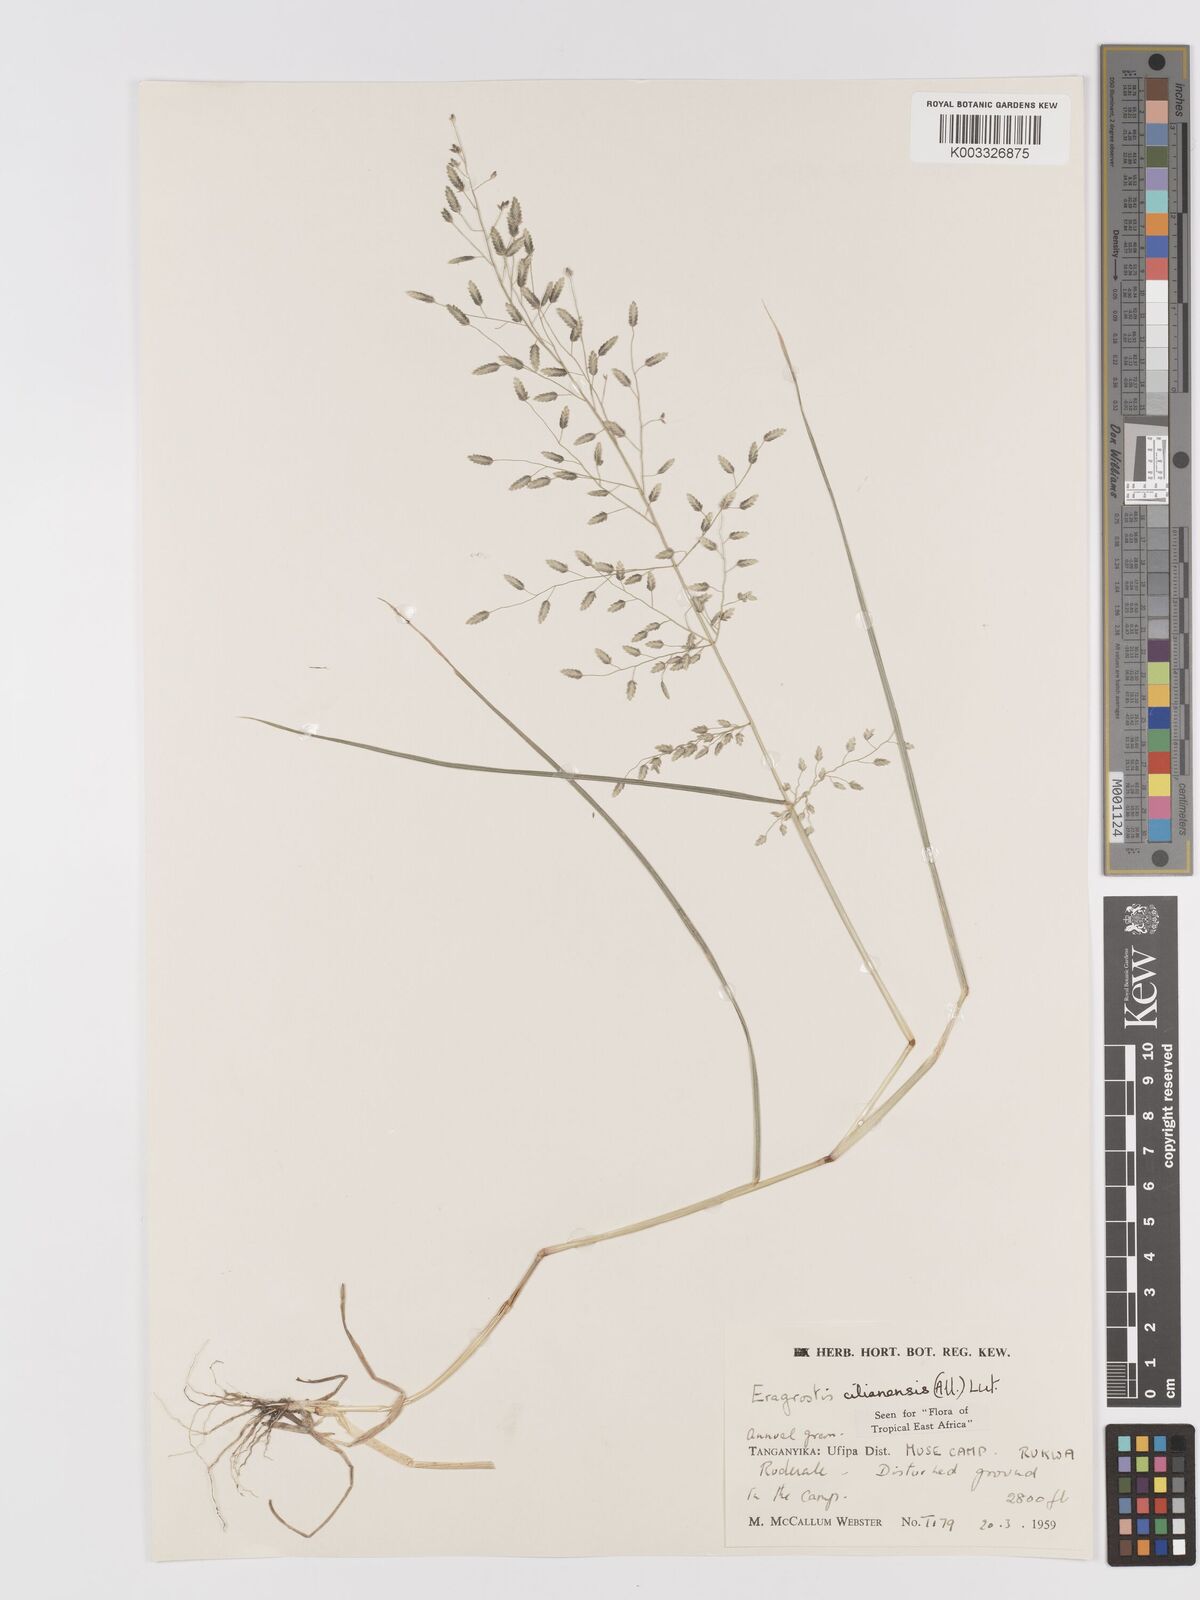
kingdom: Plantae
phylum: Tracheophyta
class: Liliopsida
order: Poales
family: Poaceae
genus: Eragrostis
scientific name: Eragrostis cilianensis
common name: Stinkgrass
